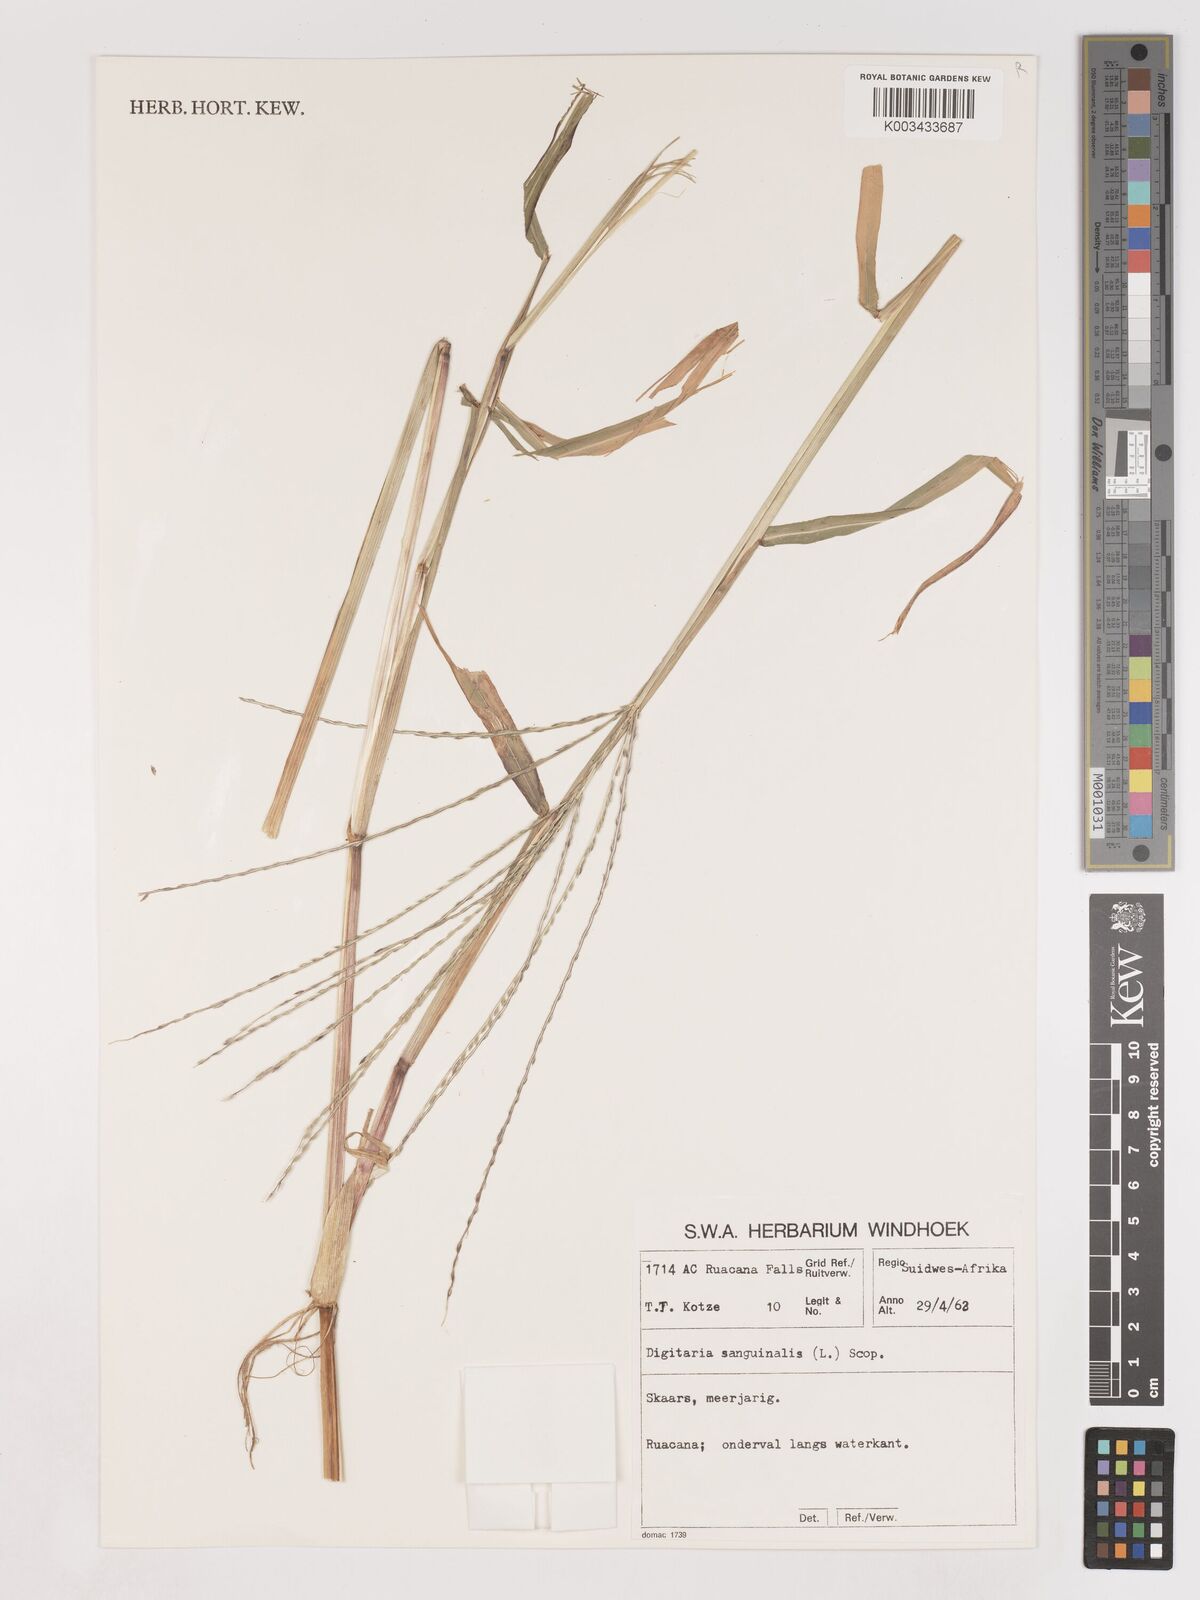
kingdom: Plantae
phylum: Tracheophyta
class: Liliopsida
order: Poales
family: Poaceae
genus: Digitaria
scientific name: Digitaria sanguinalis
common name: Hairy crabgrass
